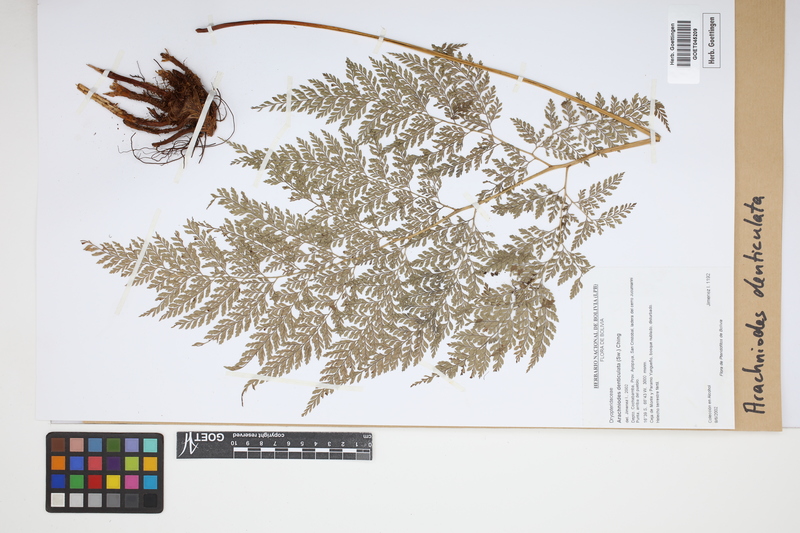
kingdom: Plantae
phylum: Tracheophyta
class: Polypodiopsida
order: Polypodiales
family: Dryopteridaceae
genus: Arachniodes
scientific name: Arachniodes denticulata
